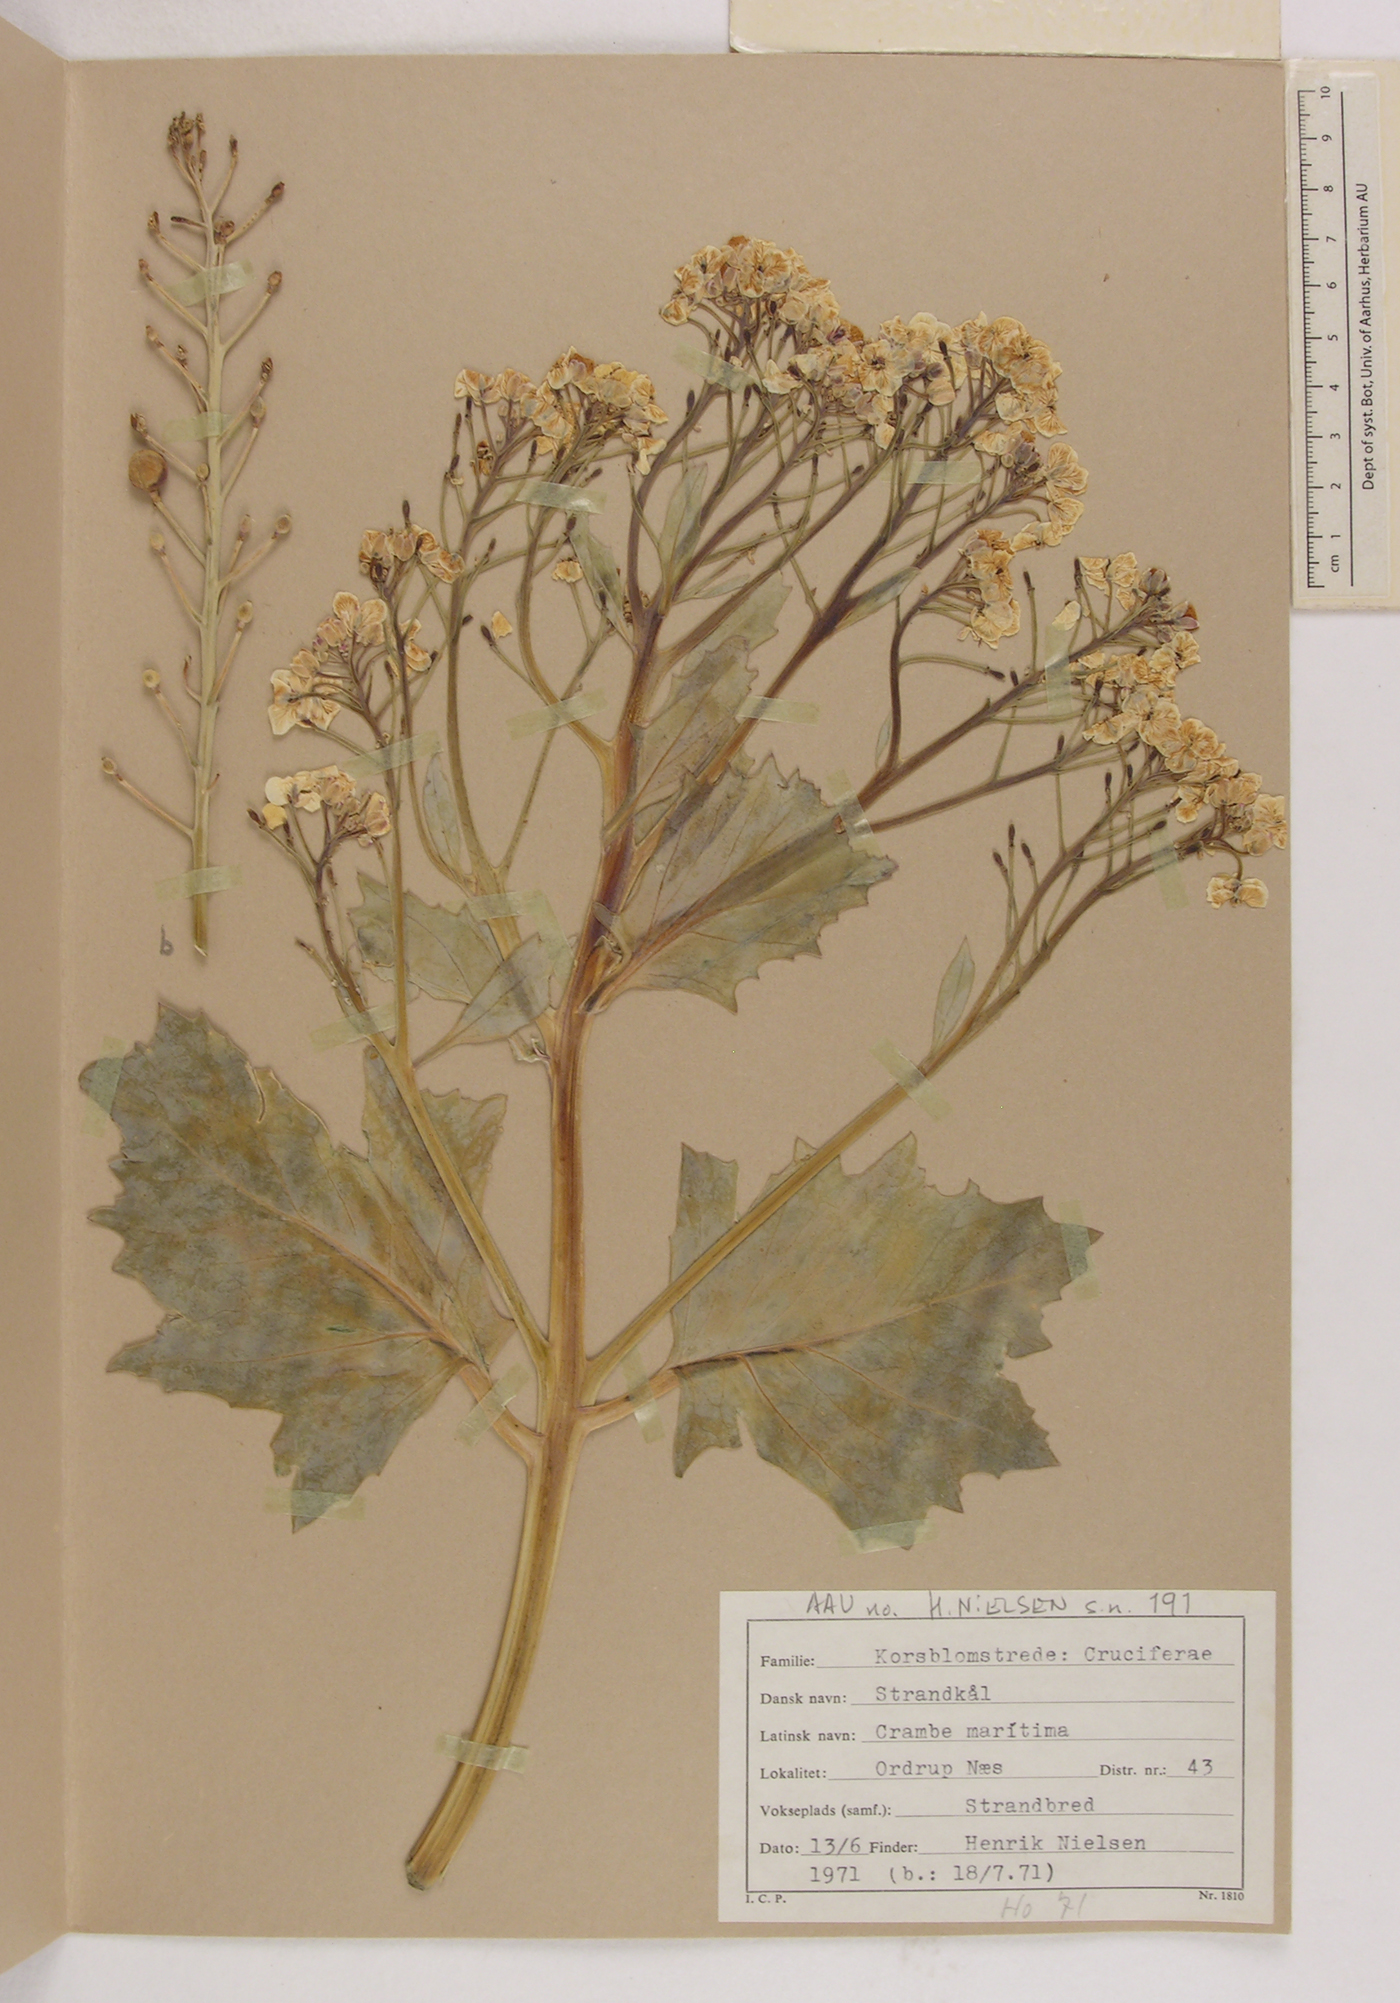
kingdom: Plantae
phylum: Tracheophyta
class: Magnoliopsida
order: Brassicales
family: Brassicaceae
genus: Crambe
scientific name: Crambe maritima
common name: Sea-kale
